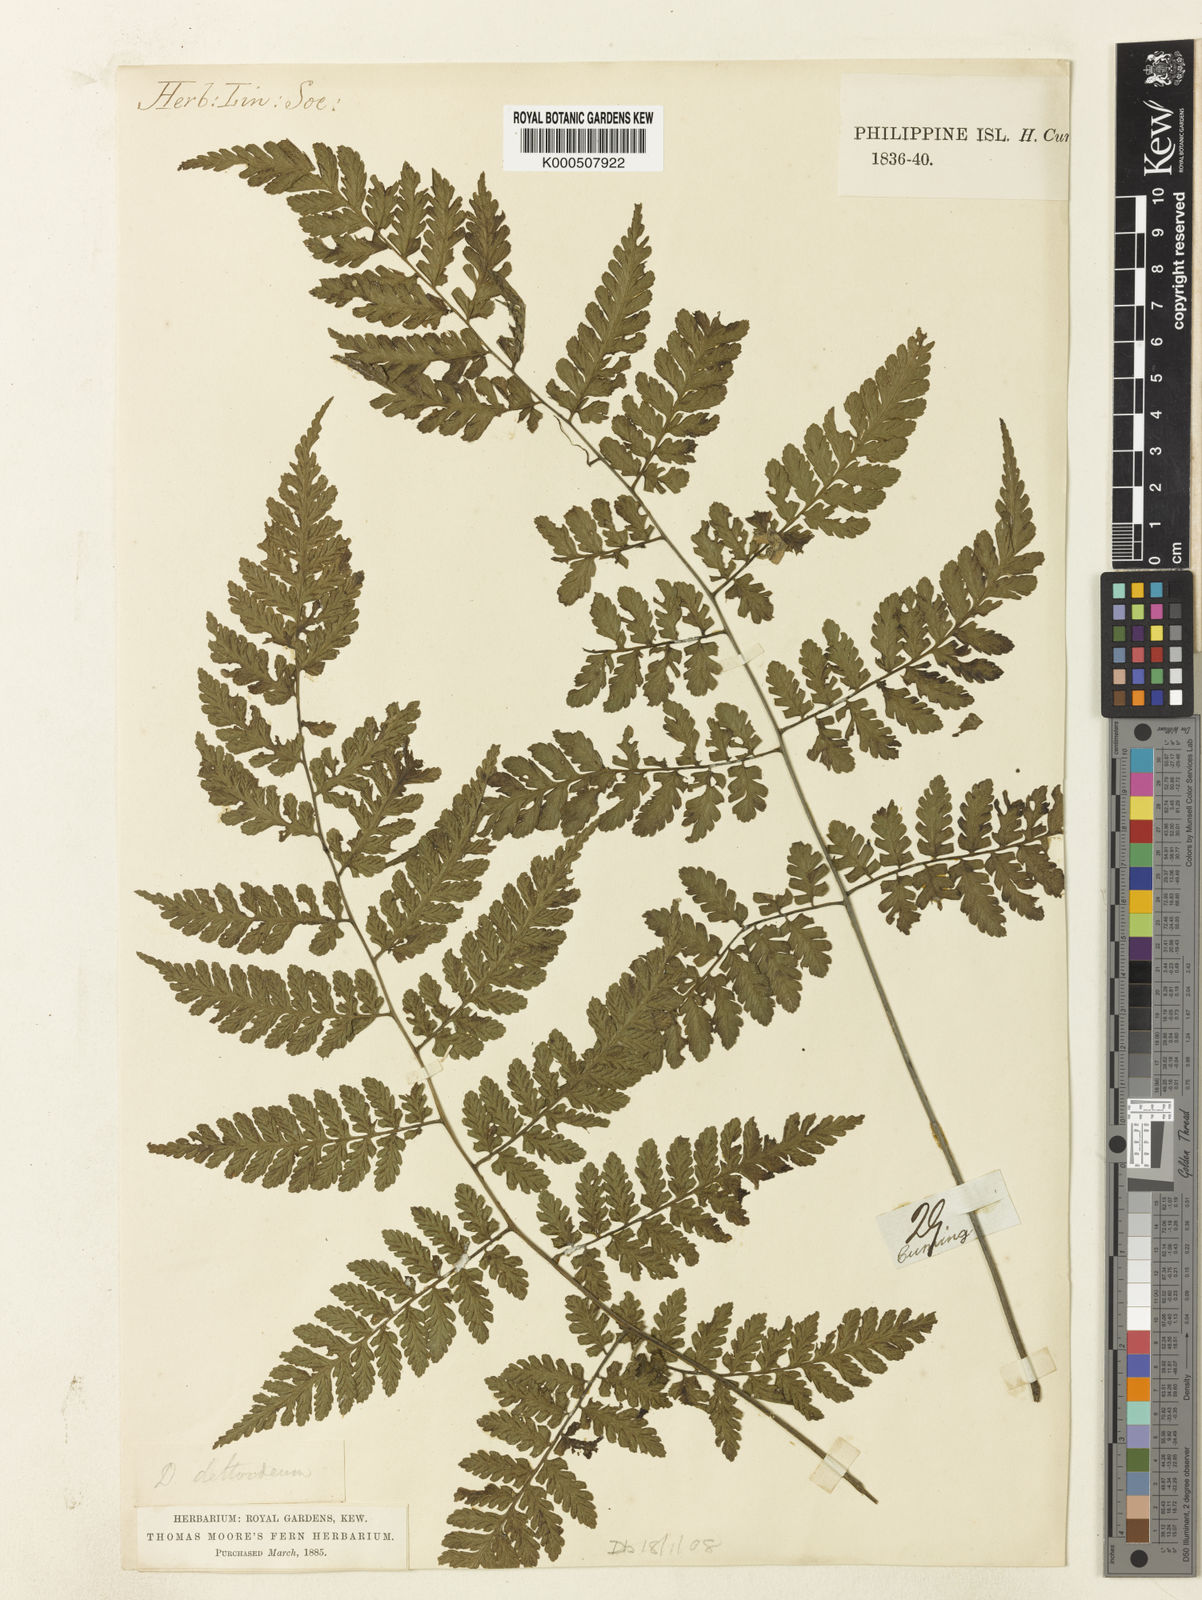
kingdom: Plantae
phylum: Tracheophyta
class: Polypodiopsida
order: Polypodiales
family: Athyriaceae
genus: Diplazium
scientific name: Diplazium
